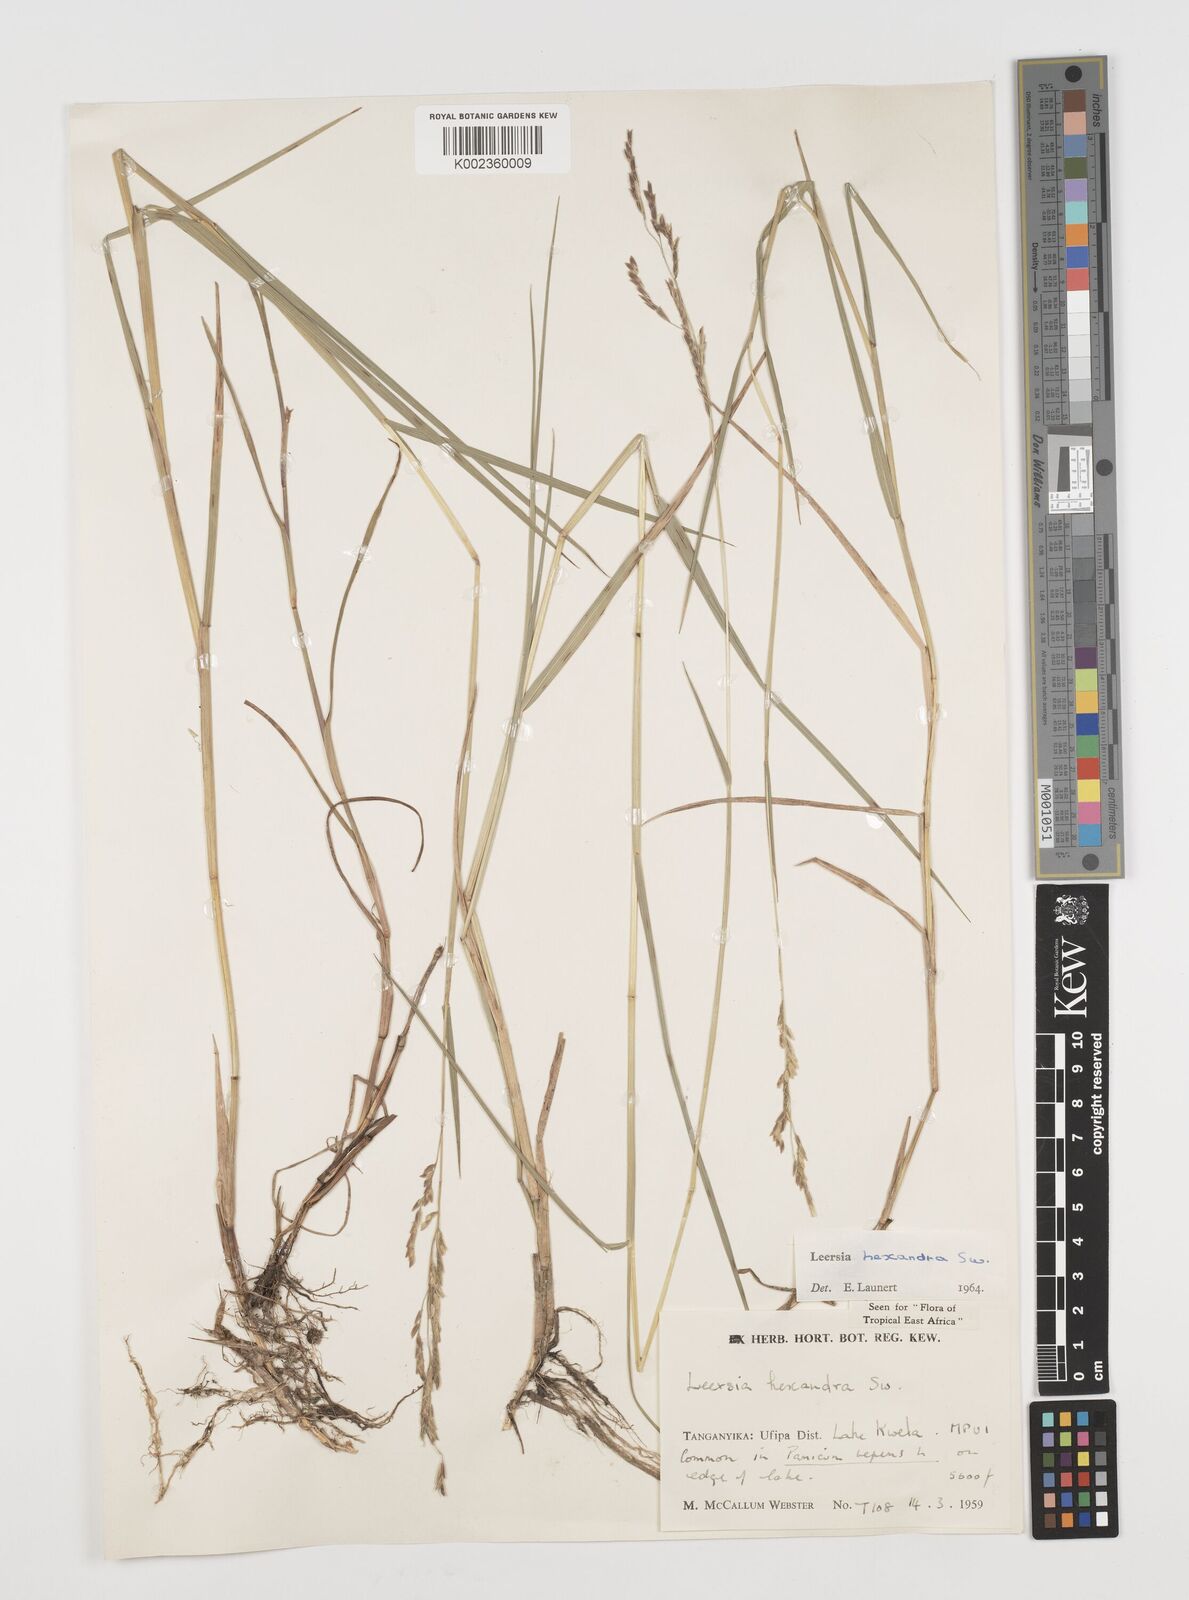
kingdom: Plantae
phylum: Tracheophyta
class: Liliopsida
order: Poales
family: Poaceae
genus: Leersia
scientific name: Leersia hexandra
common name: Southern cut grass
